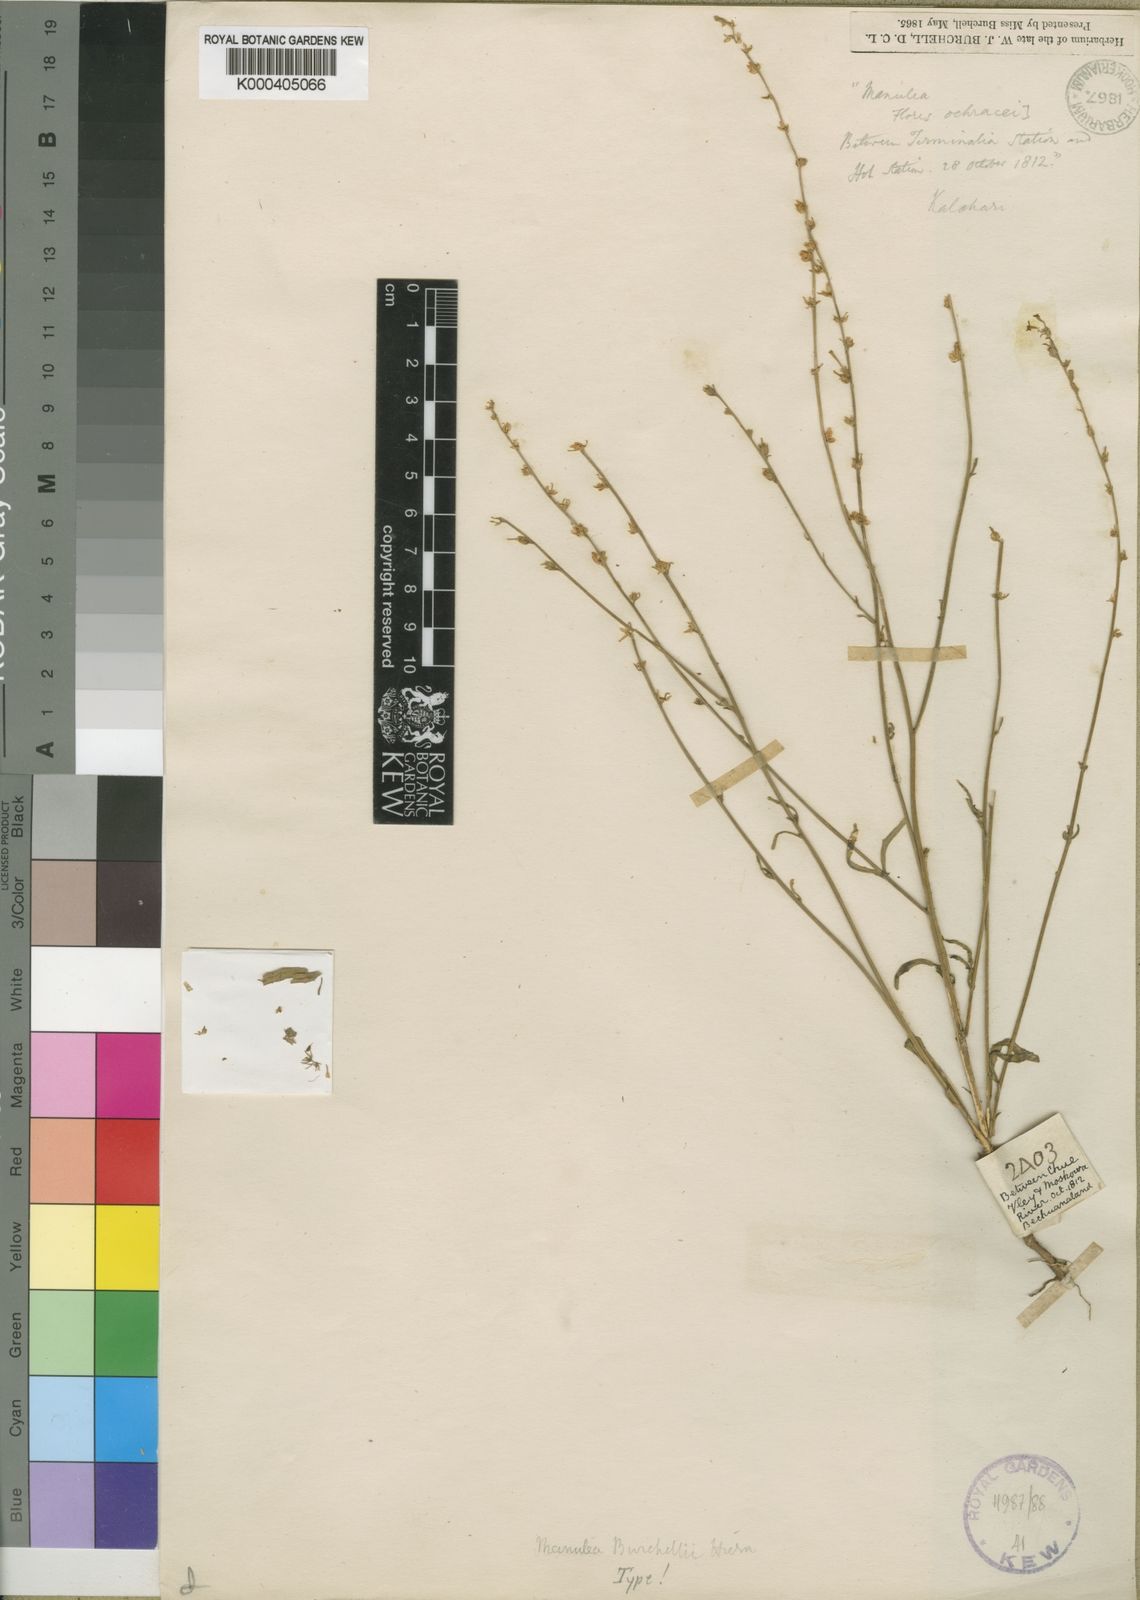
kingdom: Plantae
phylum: Tracheophyta
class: Magnoliopsida
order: Lamiales
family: Scrophulariaceae
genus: Manulea
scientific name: Manulea burchellii
